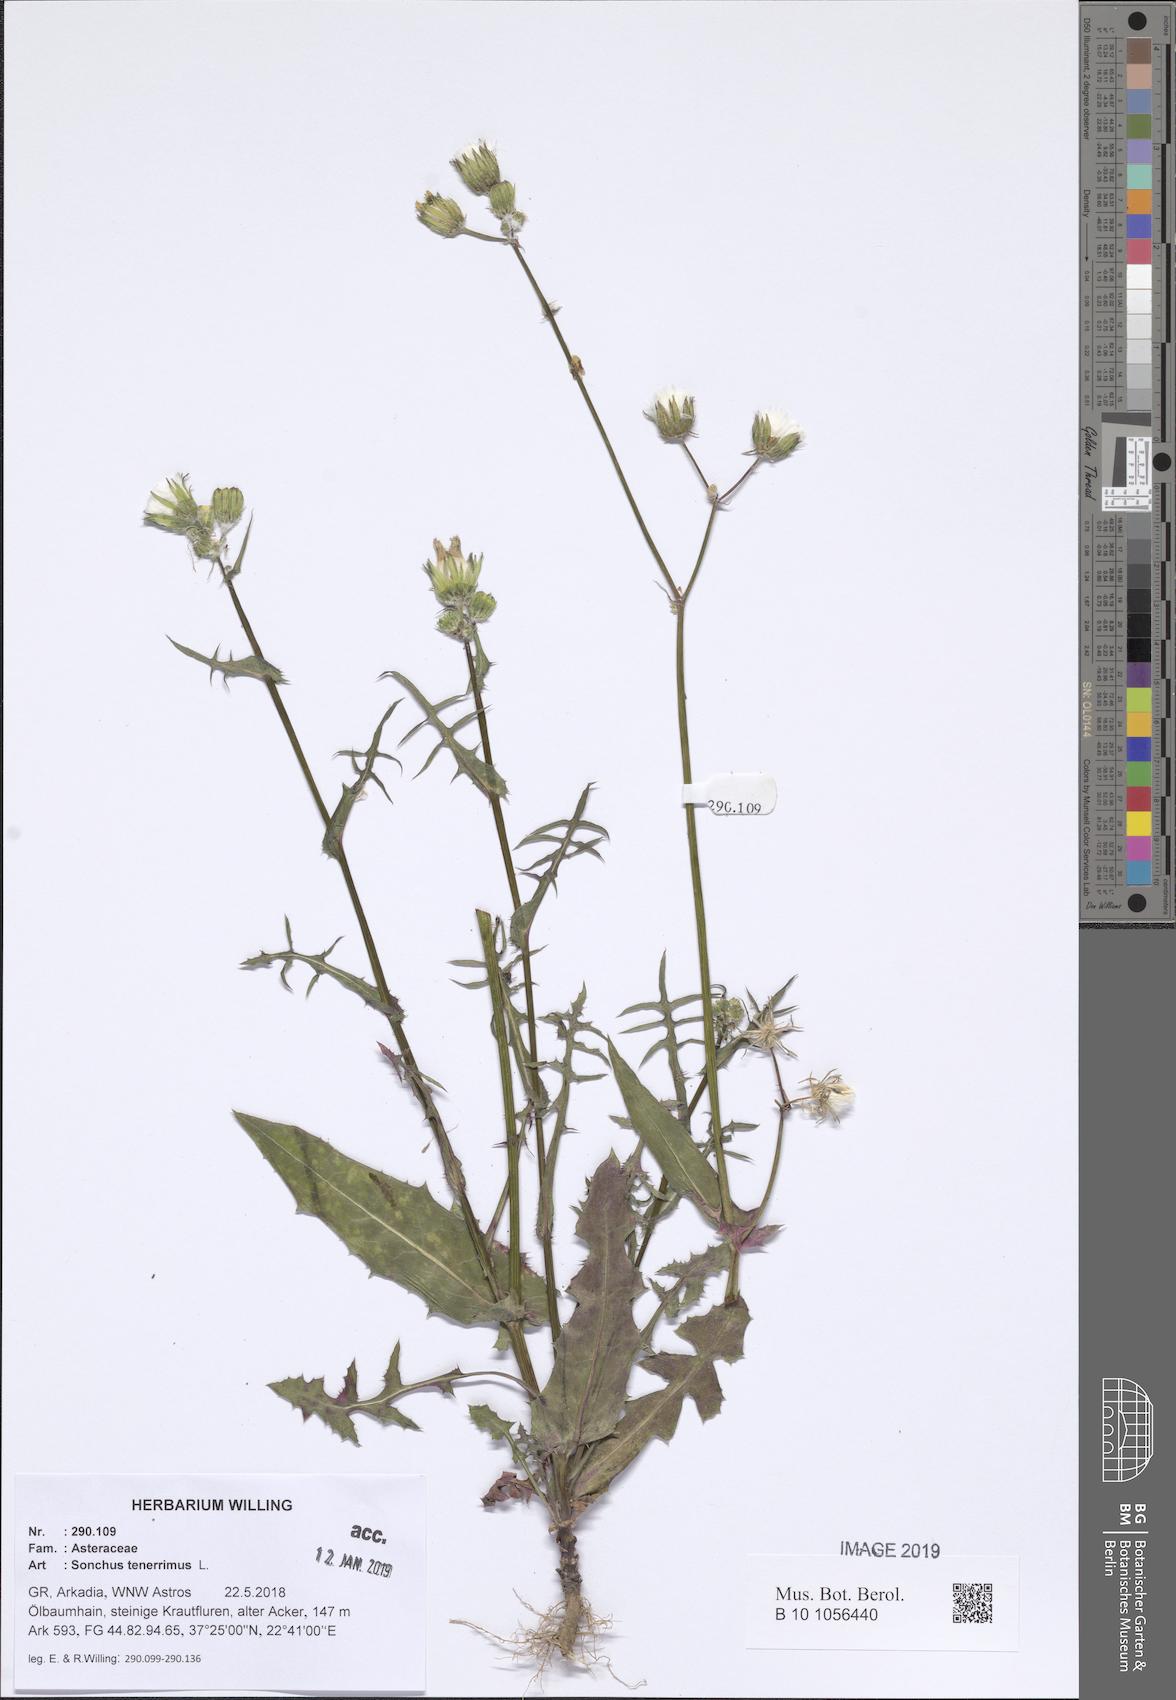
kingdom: Plantae
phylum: Tracheophyta
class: Magnoliopsida
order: Asterales
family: Asteraceae
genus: Sonchus
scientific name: Sonchus tenerrimus
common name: Clammy sowthistle
